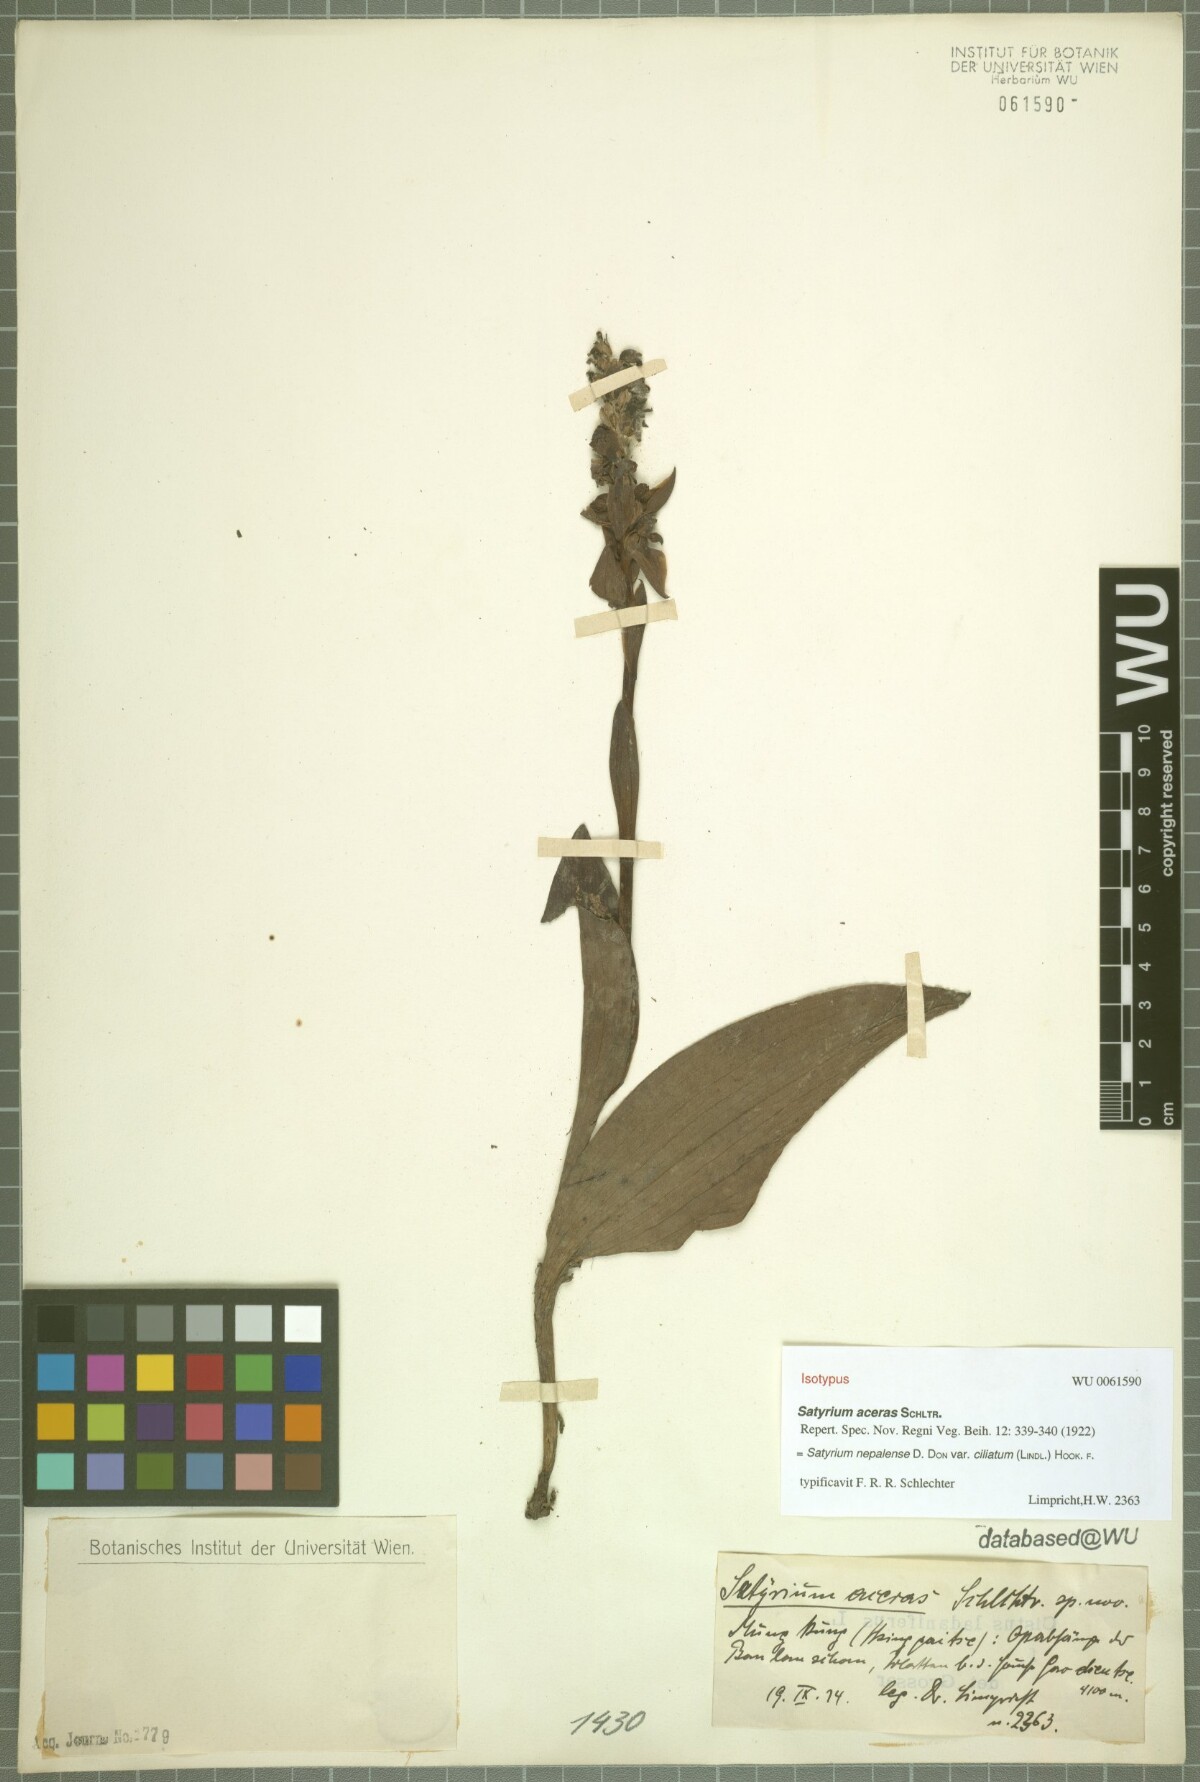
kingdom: Plantae
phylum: Tracheophyta
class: Liliopsida
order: Asparagales
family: Orchidaceae
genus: Satyrium
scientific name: Satyrium nepalense
